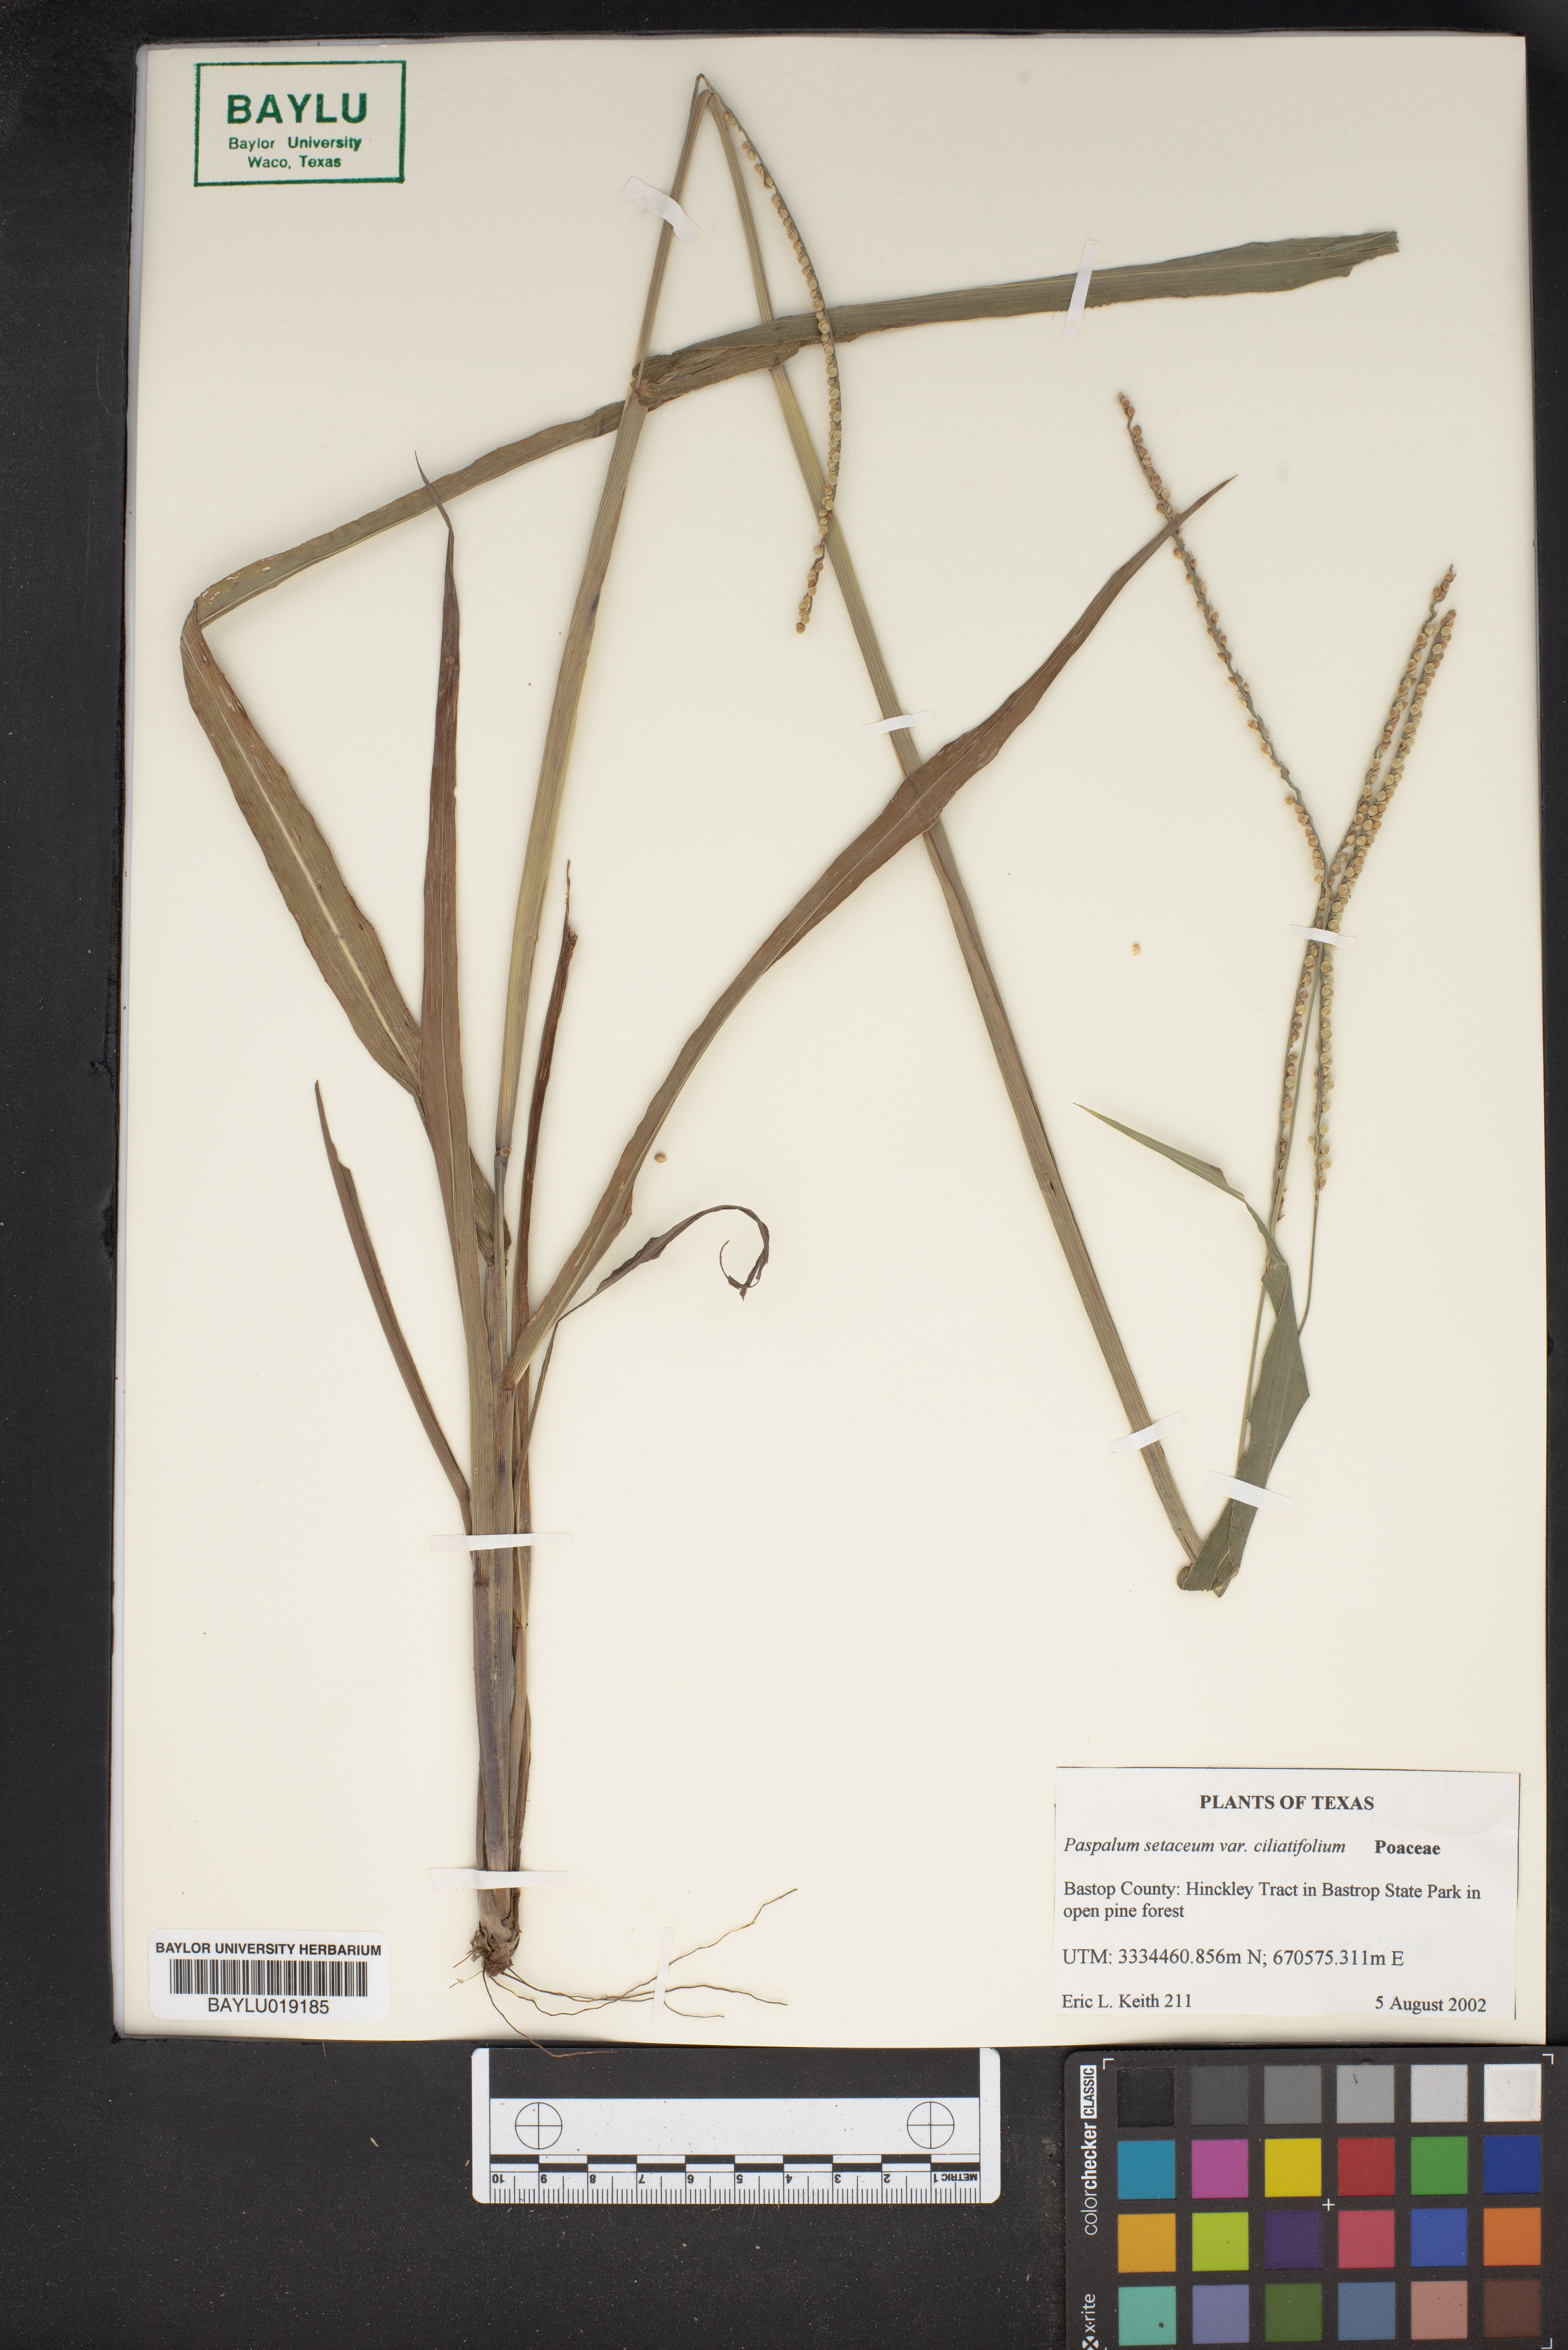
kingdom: Plantae
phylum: Tracheophyta
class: Liliopsida
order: Poales
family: Poaceae
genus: Paspalum
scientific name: Paspalum setaceum
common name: Slender paspalum
